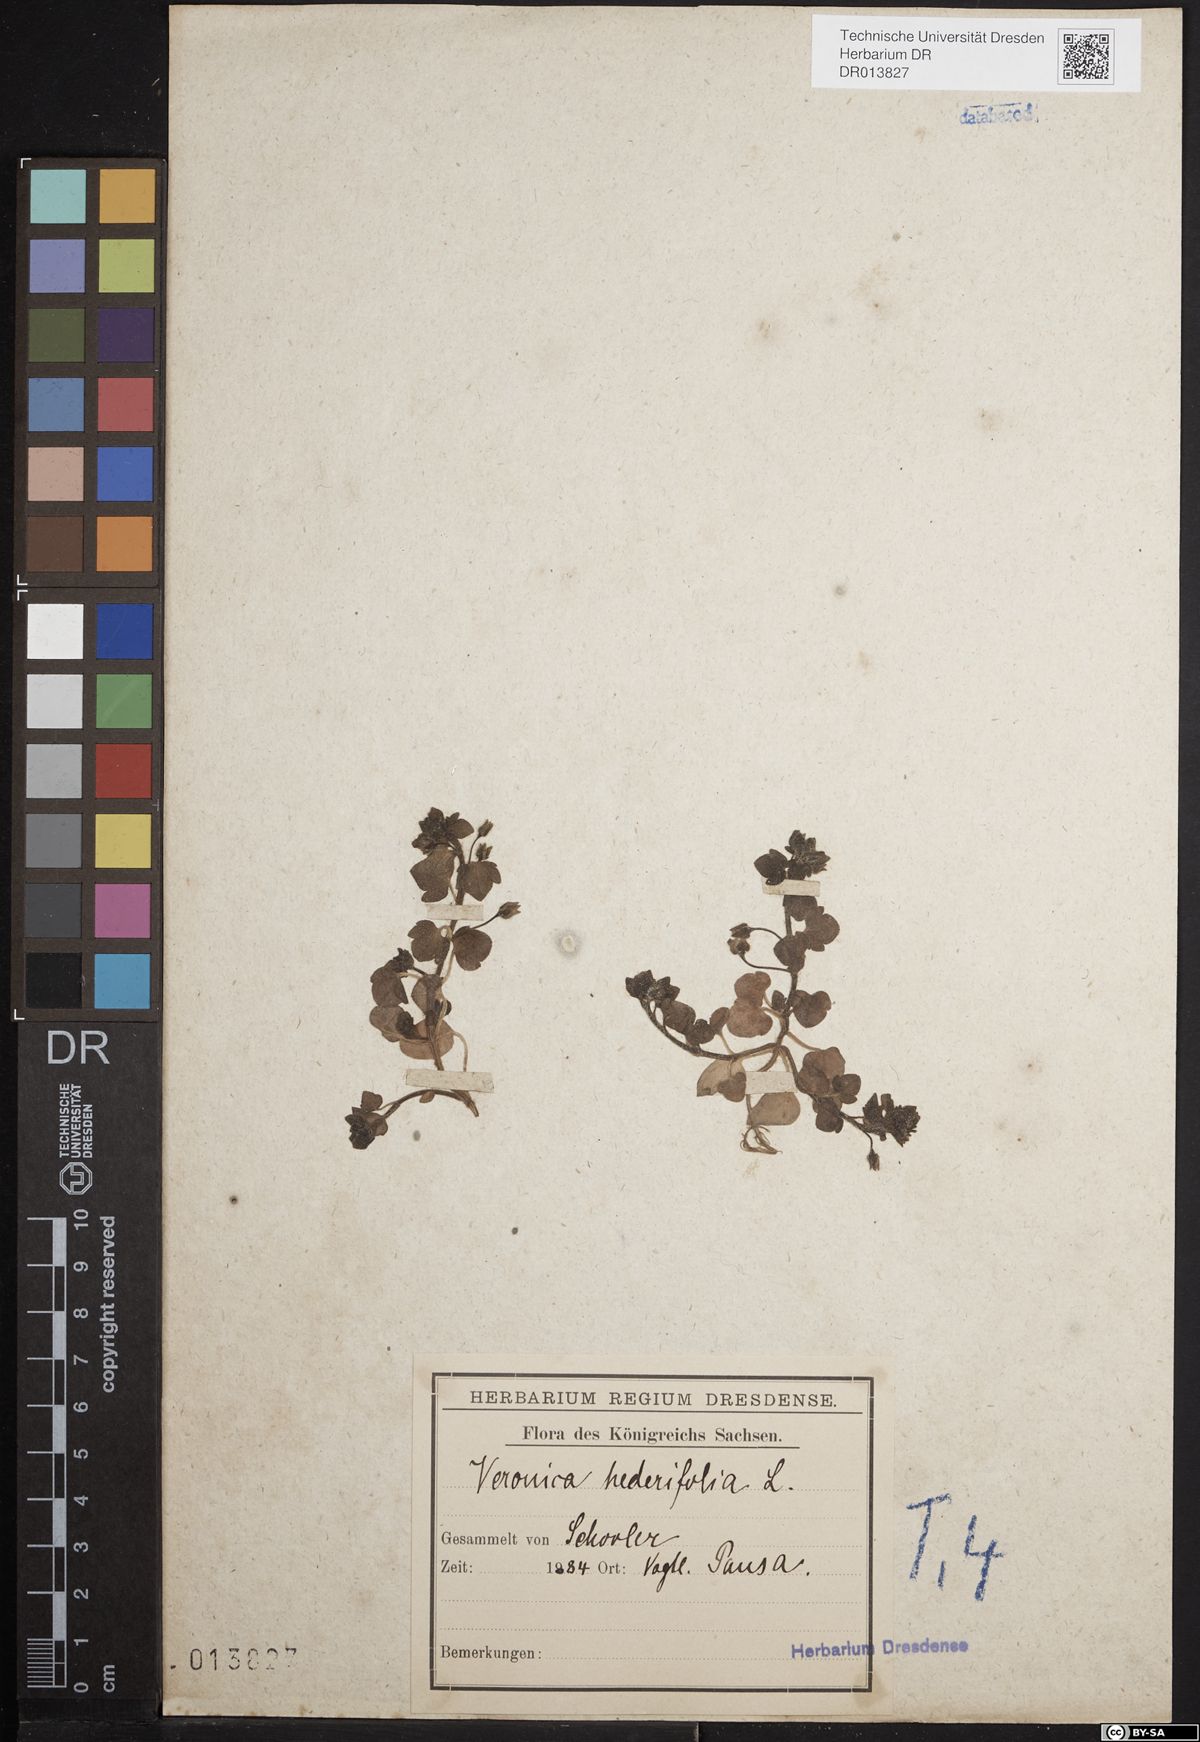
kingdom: Plantae
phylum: Tracheophyta
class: Magnoliopsida
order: Lamiales
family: Plantaginaceae
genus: Veronica
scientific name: Veronica hederifolia
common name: Ivy-leaved speedwell
